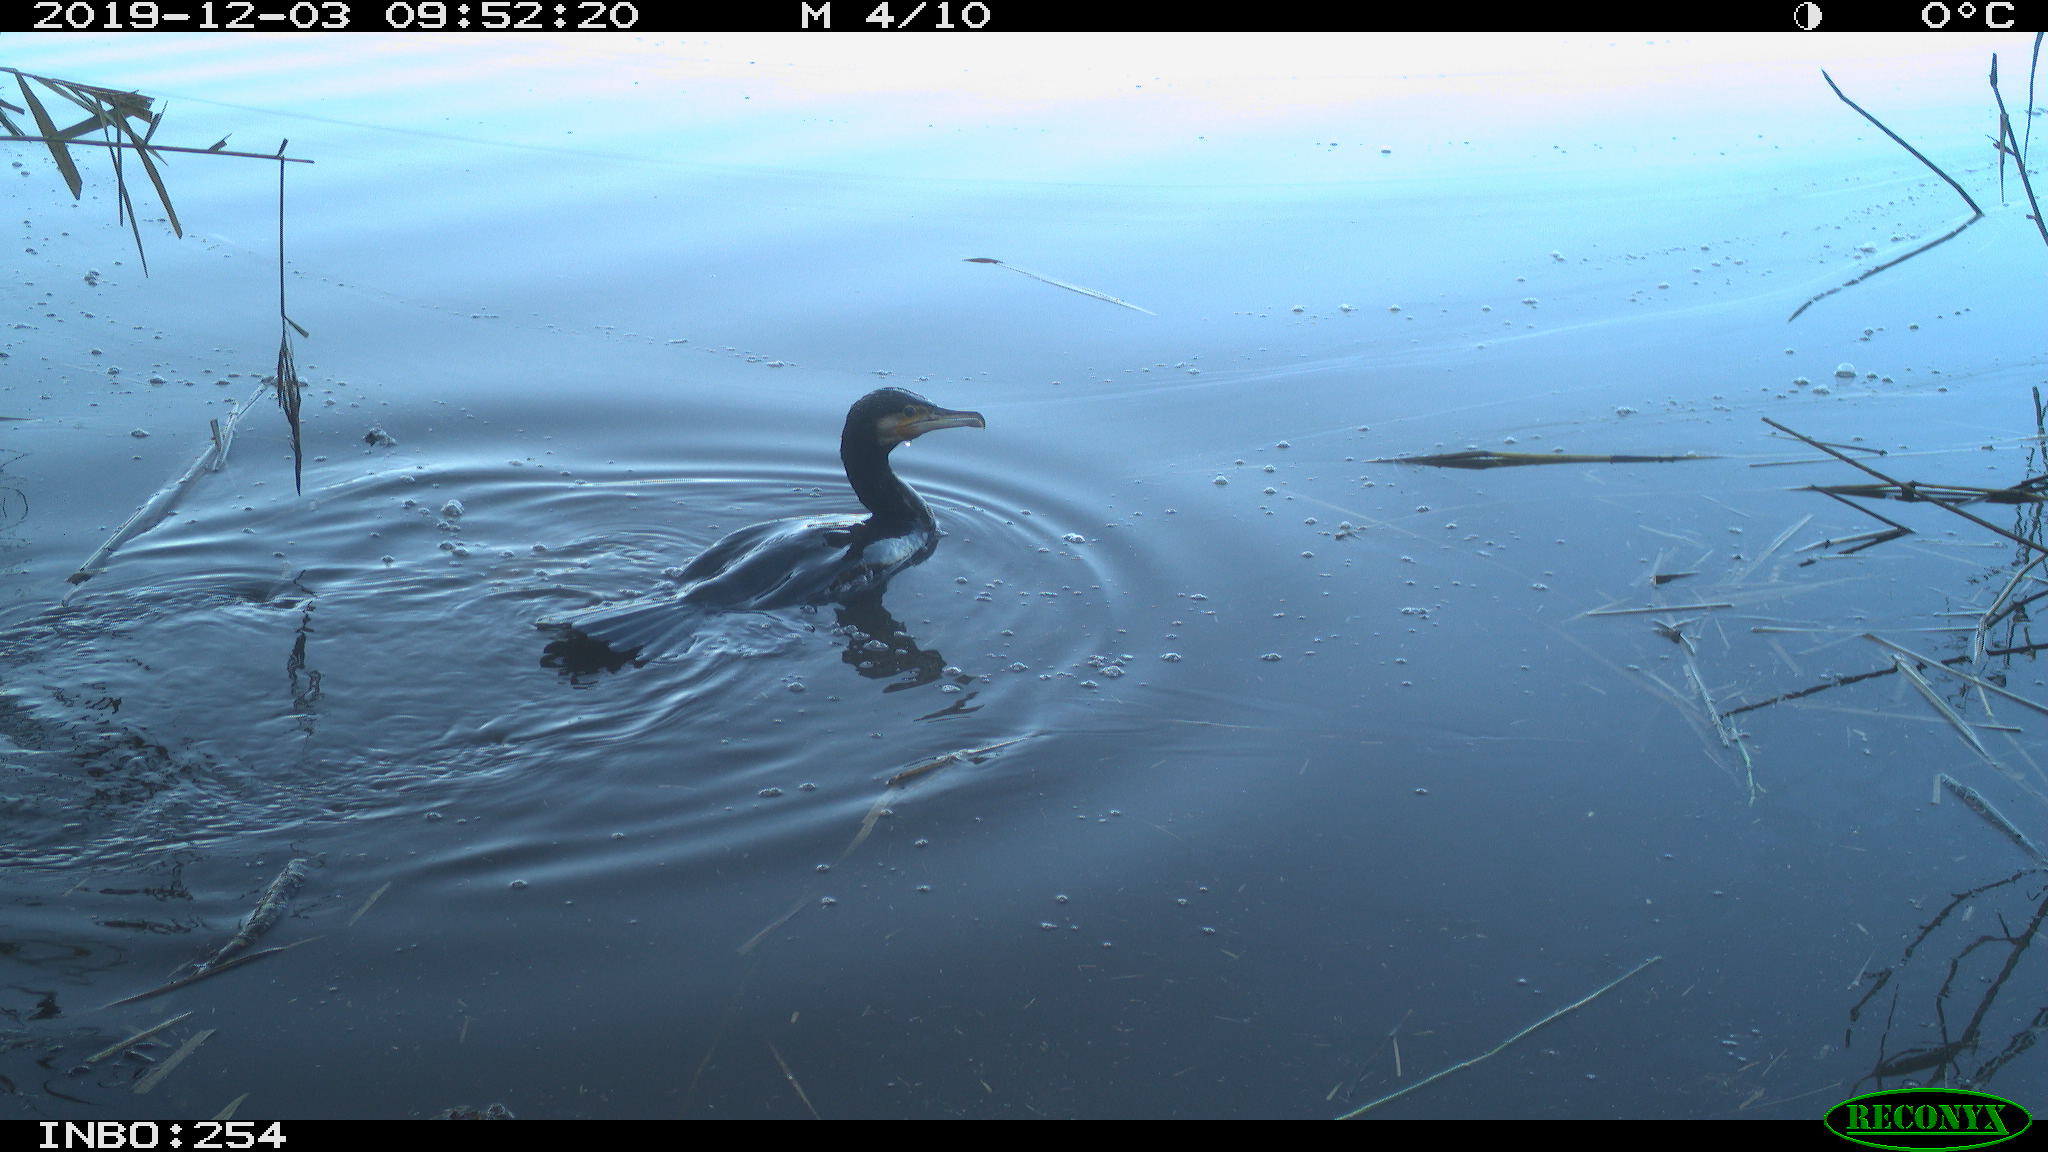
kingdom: Animalia
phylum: Chordata
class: Aves
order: Suliformes
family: Phalacrocoracidae
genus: Phalacrocorax
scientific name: Phalacrocorax carbo
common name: Great cormorant
